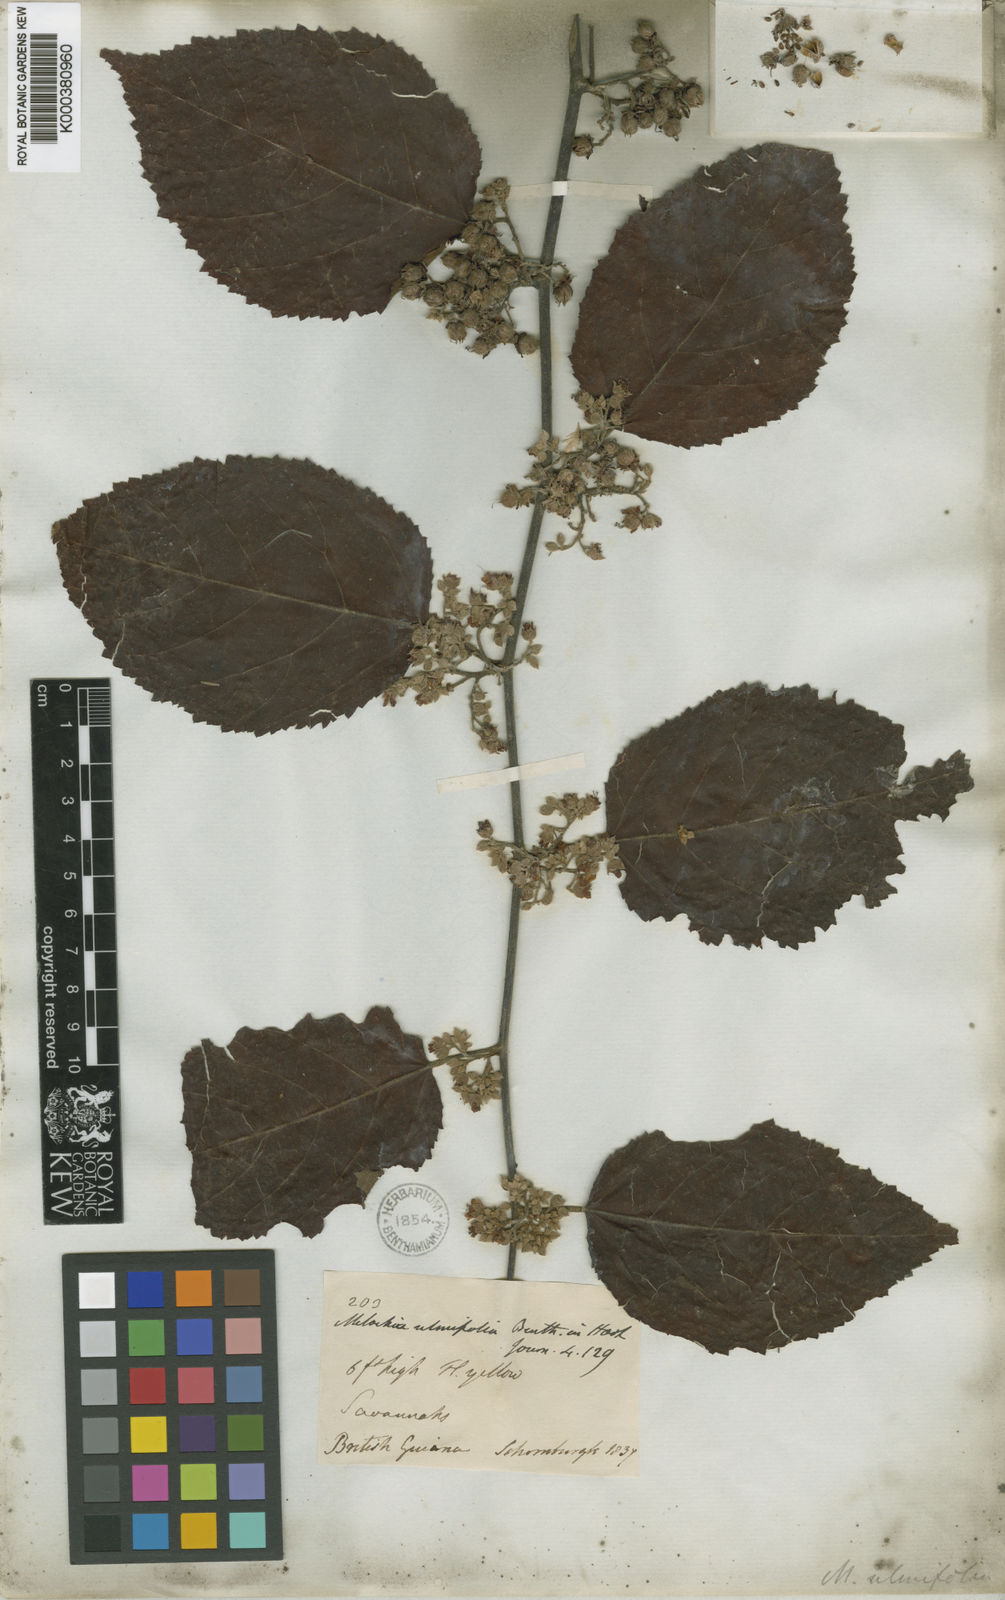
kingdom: Plantae
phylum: Tracheophyta
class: Magnoliopsida
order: Malvales
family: Malvaceae
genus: Melochia
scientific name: Melochia ulmifolia
